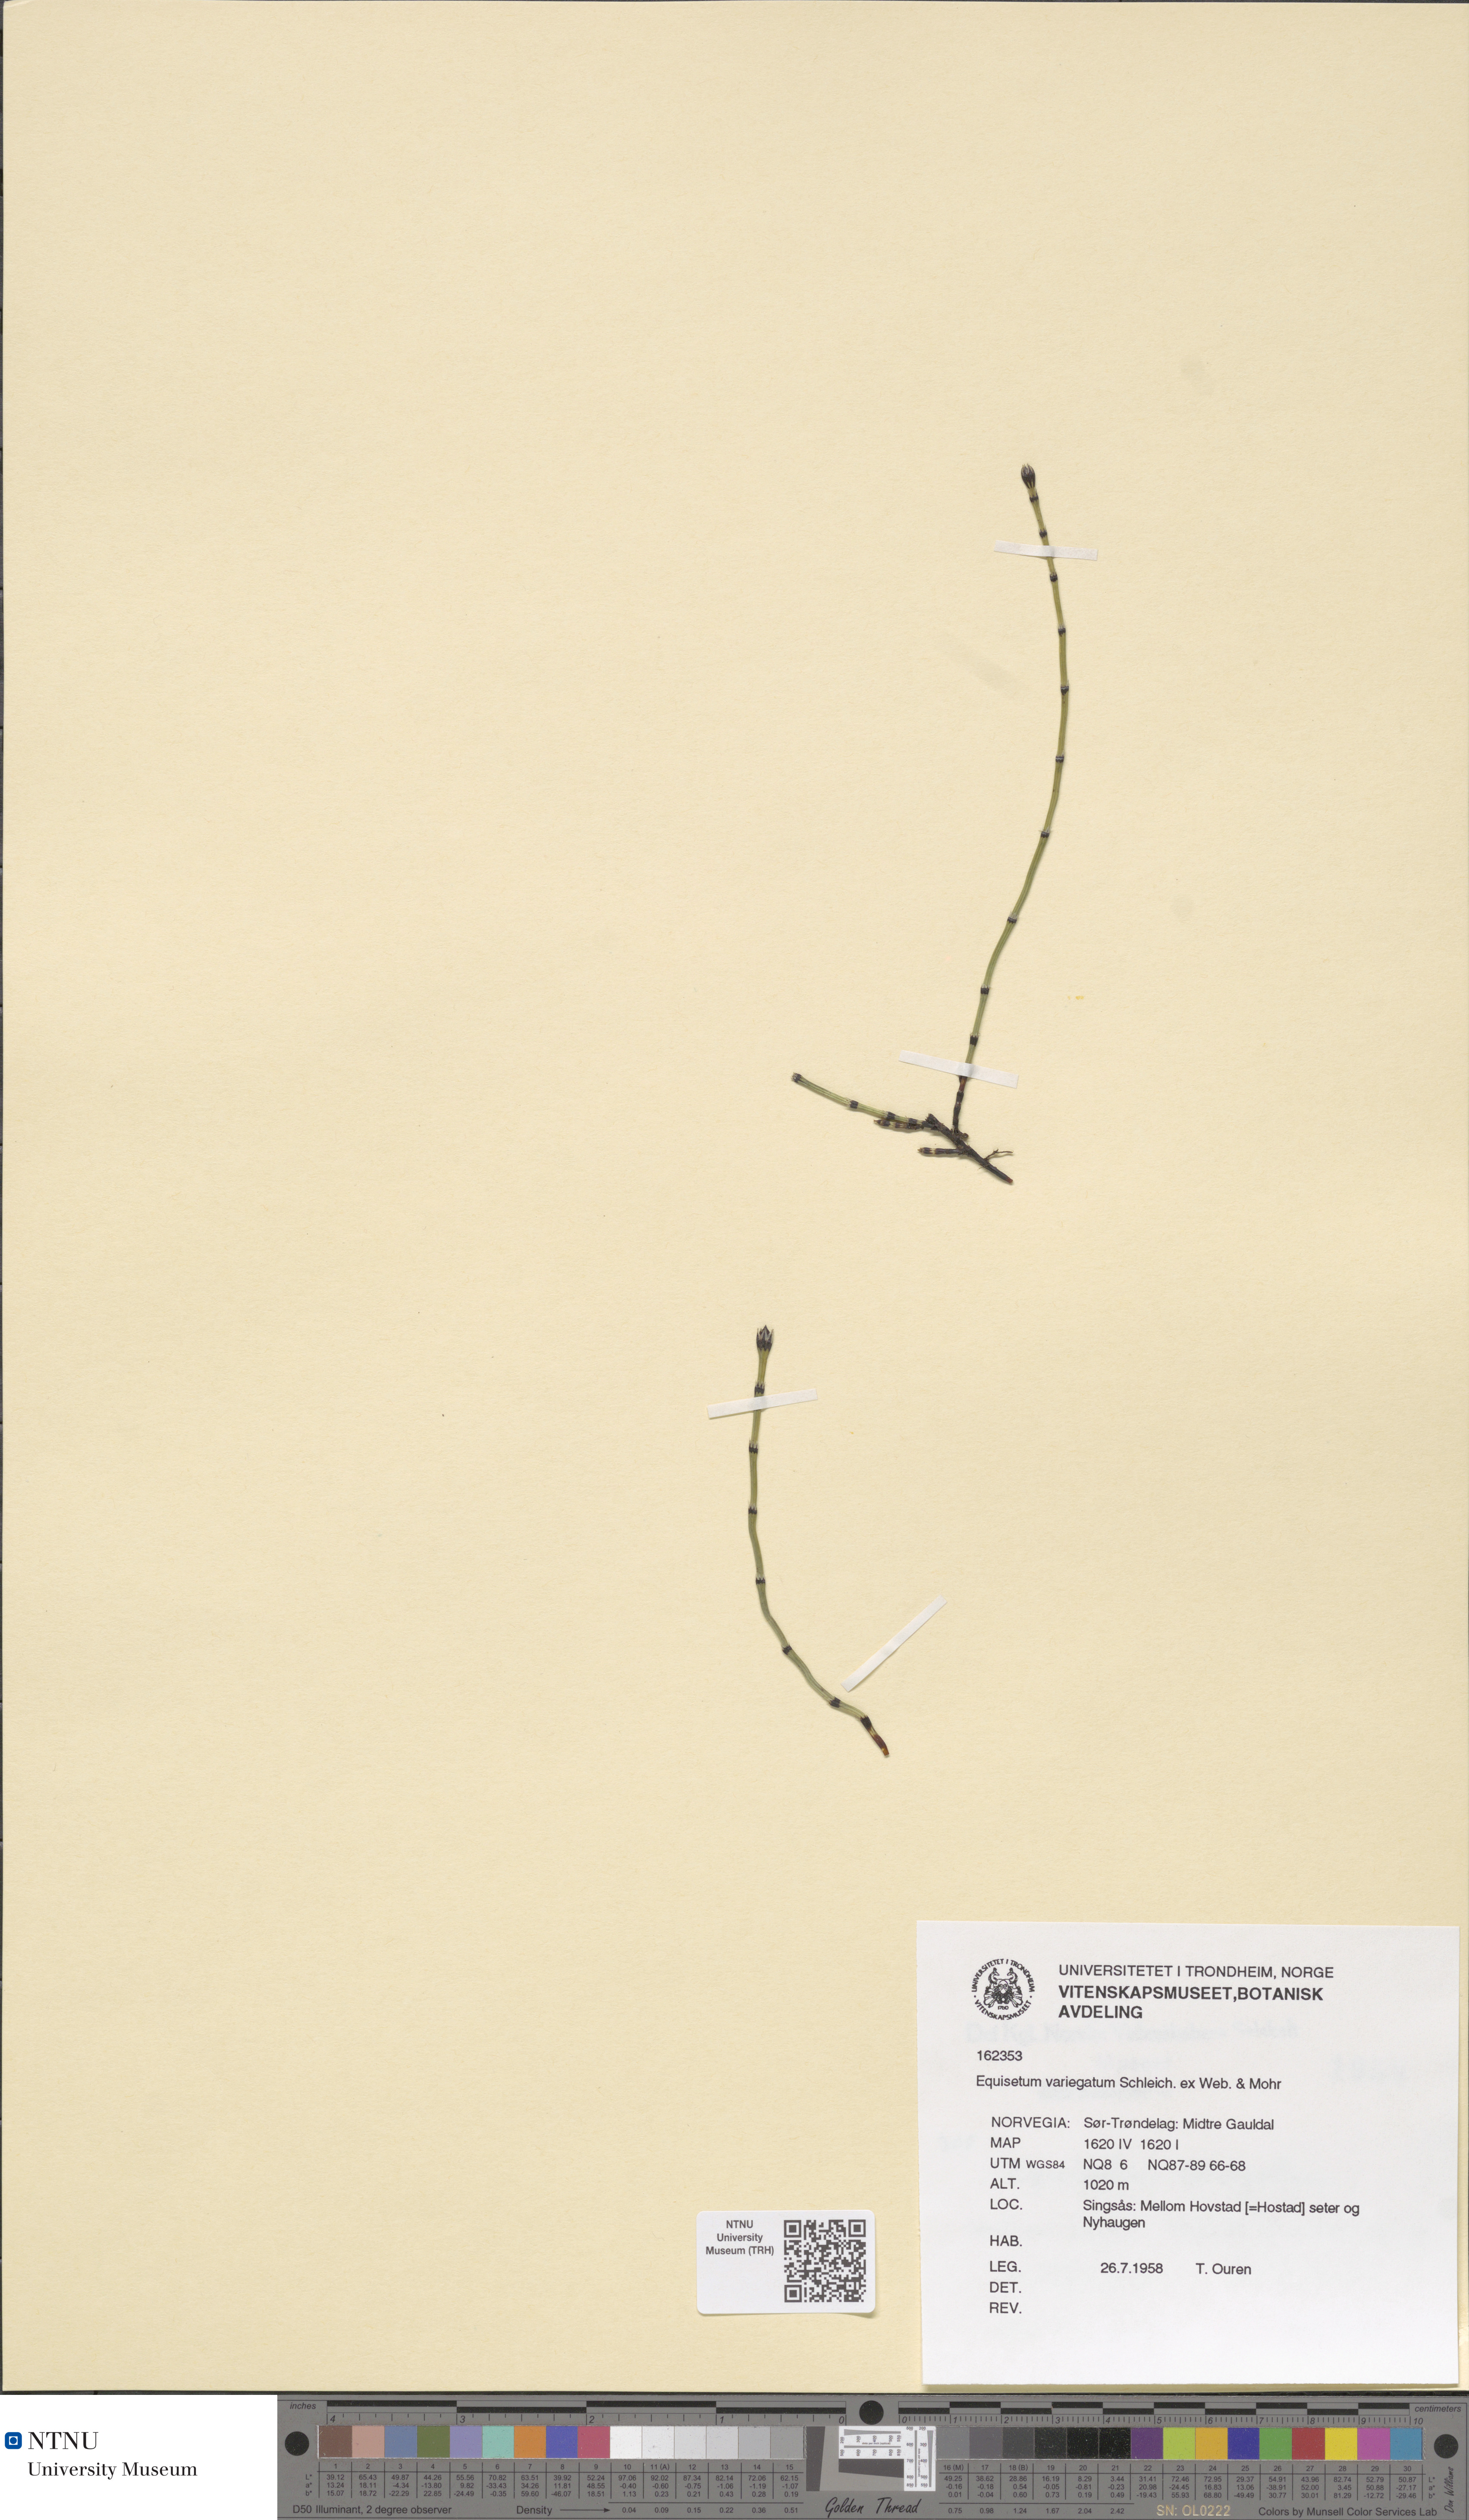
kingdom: Plantae
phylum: Tracheophyta
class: Polypodiopsida
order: Equisetales
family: Equisetaceae
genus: Equisetum
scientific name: Equisetum variegatum
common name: Variegated horsetail
